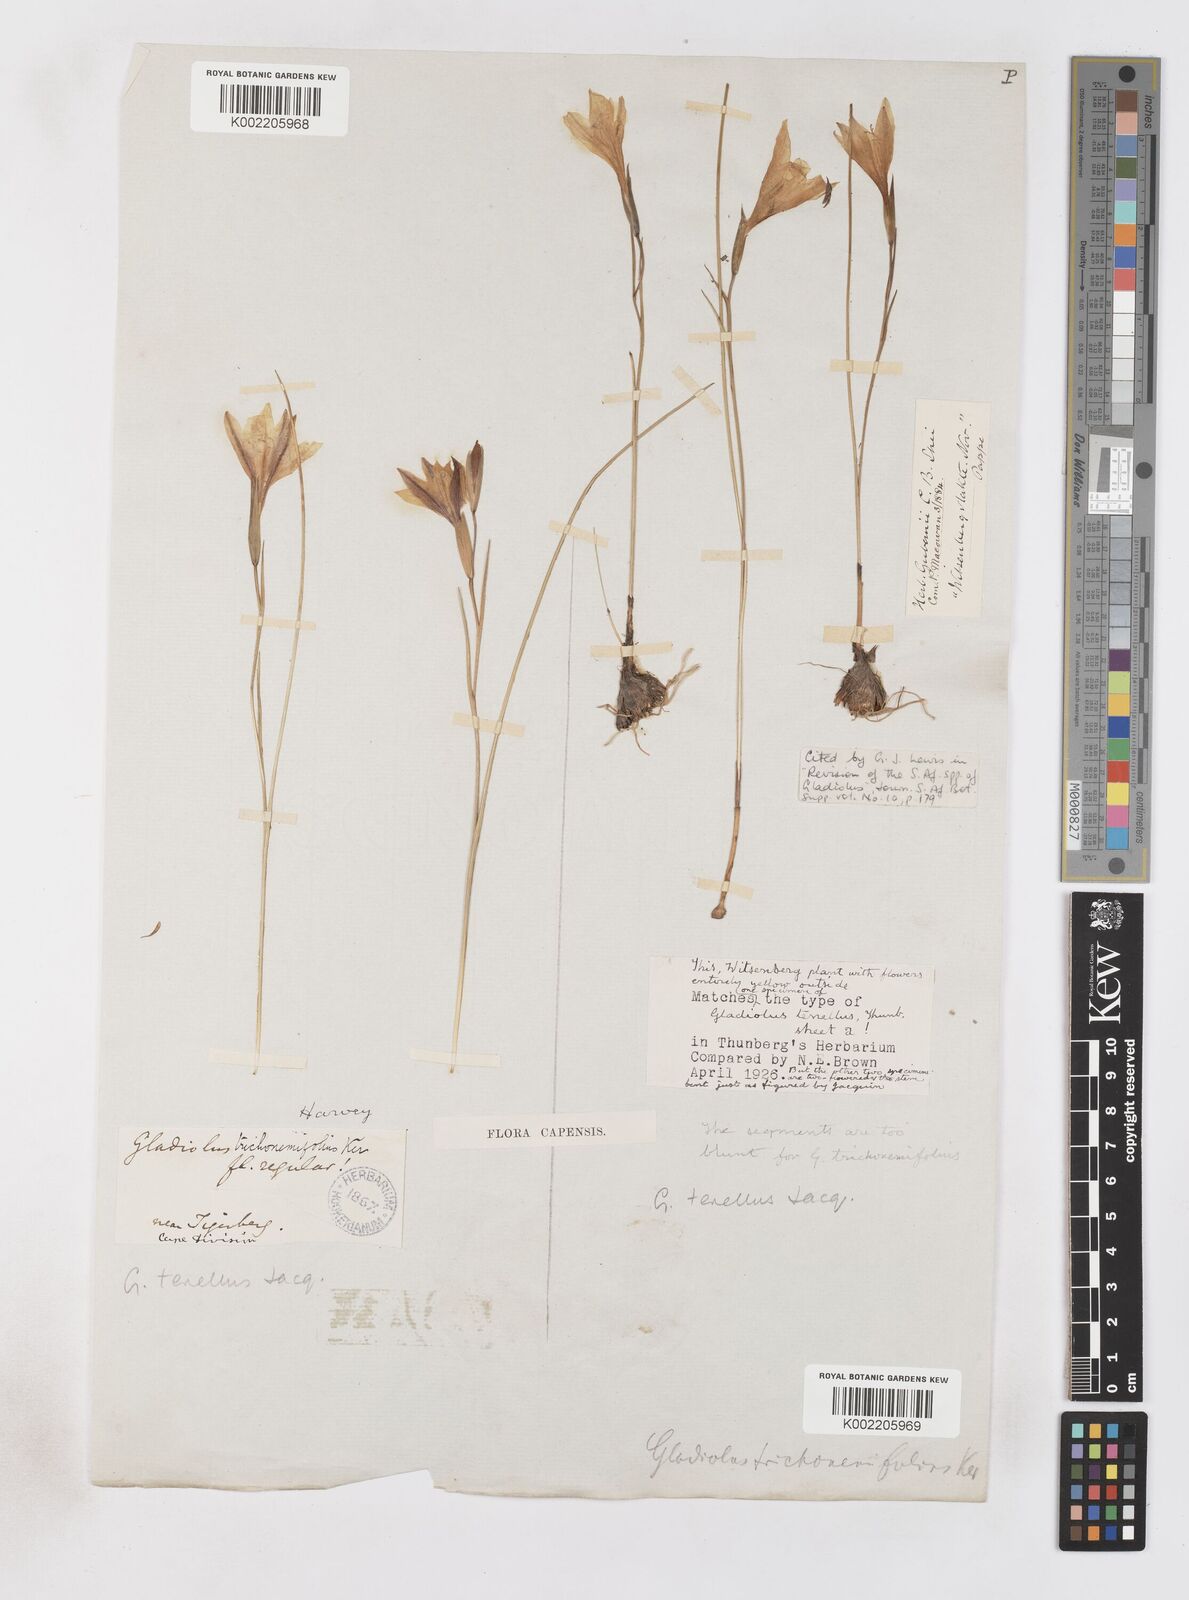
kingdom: Plantae
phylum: Tracheophyta
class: Liliopsida
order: Asparagales
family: Iridaceae
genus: Gladiolus
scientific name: Gladiolus carinatus
